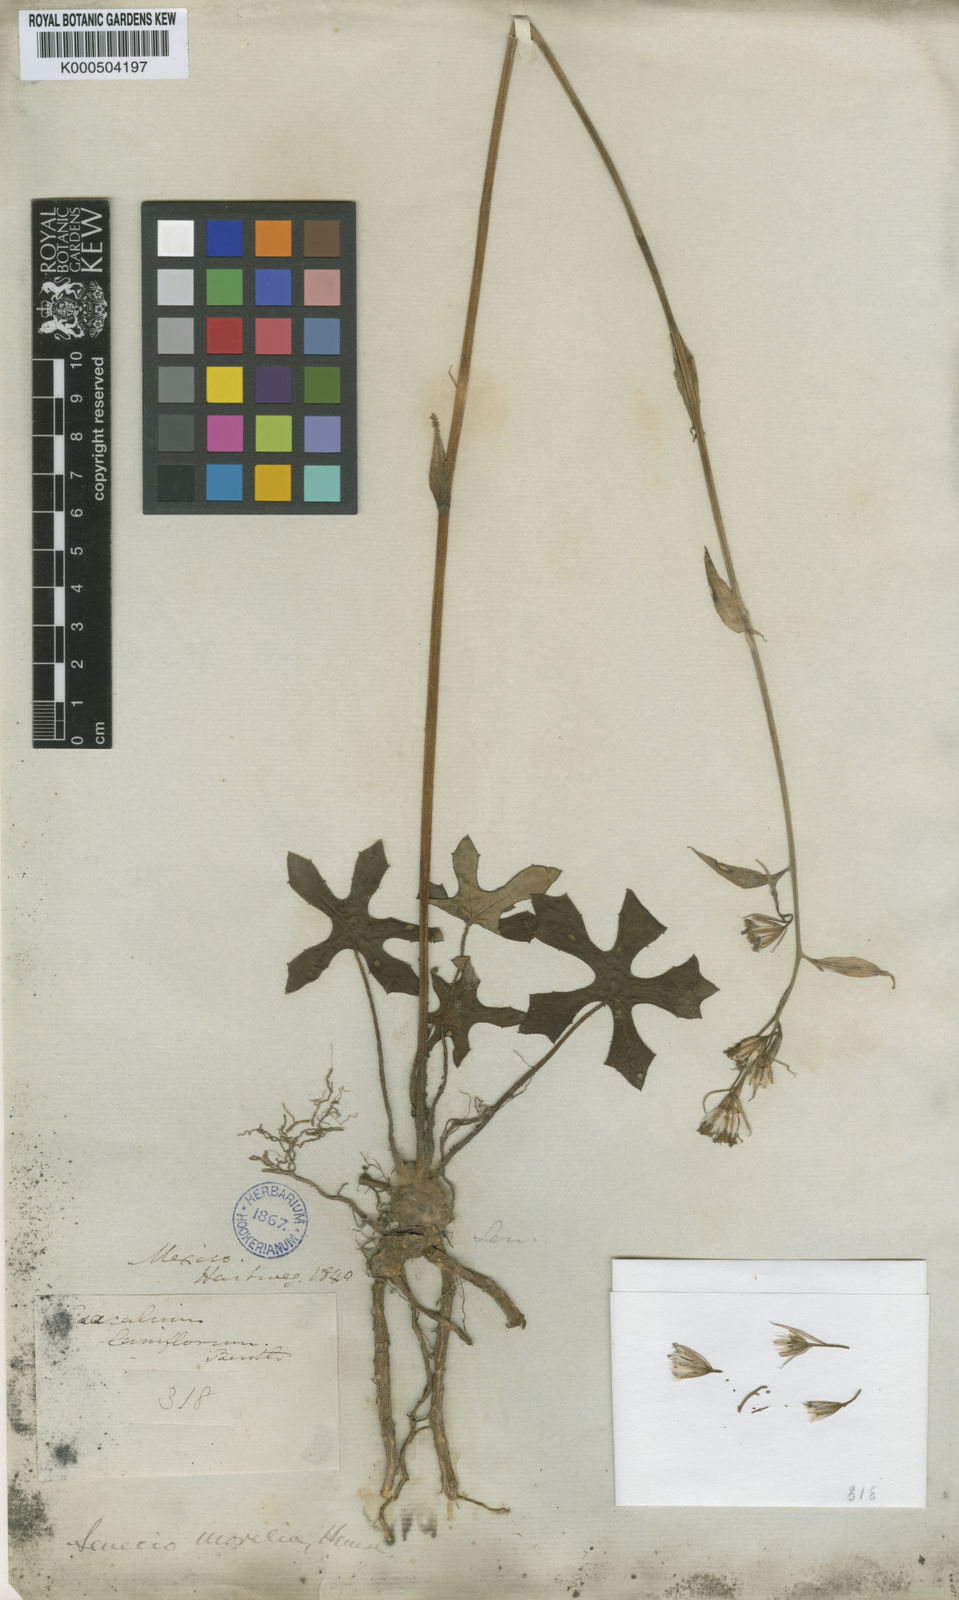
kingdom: Plantae
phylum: Tracheophyta
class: Magnoliopsida
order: Asterales
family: Asteraceae
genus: Psacalium
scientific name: Psacalium laxiflorum
